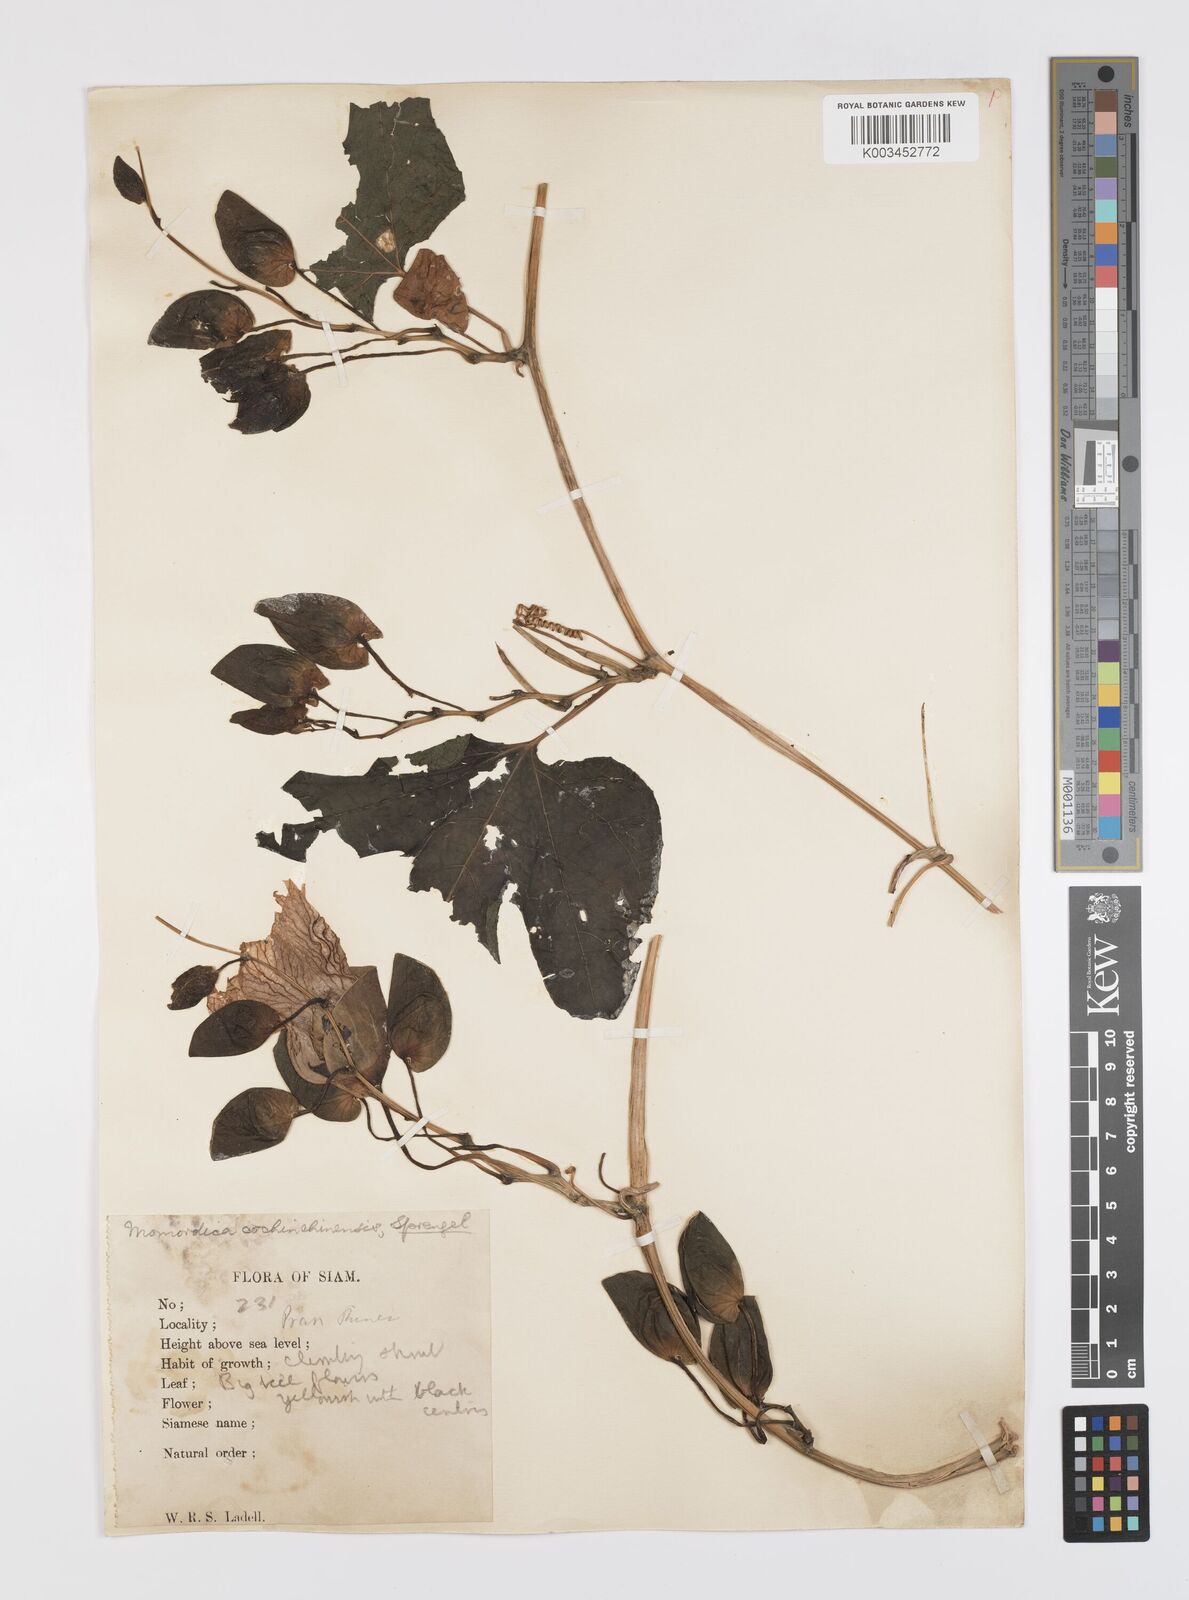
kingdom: Plantae
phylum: Tracheophyta
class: Magnoliopsida
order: Cucurbitales
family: Cucurbitaceae
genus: Momordica
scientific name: Momordica cochinchinensis
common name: Chinese bitter-cucumber
